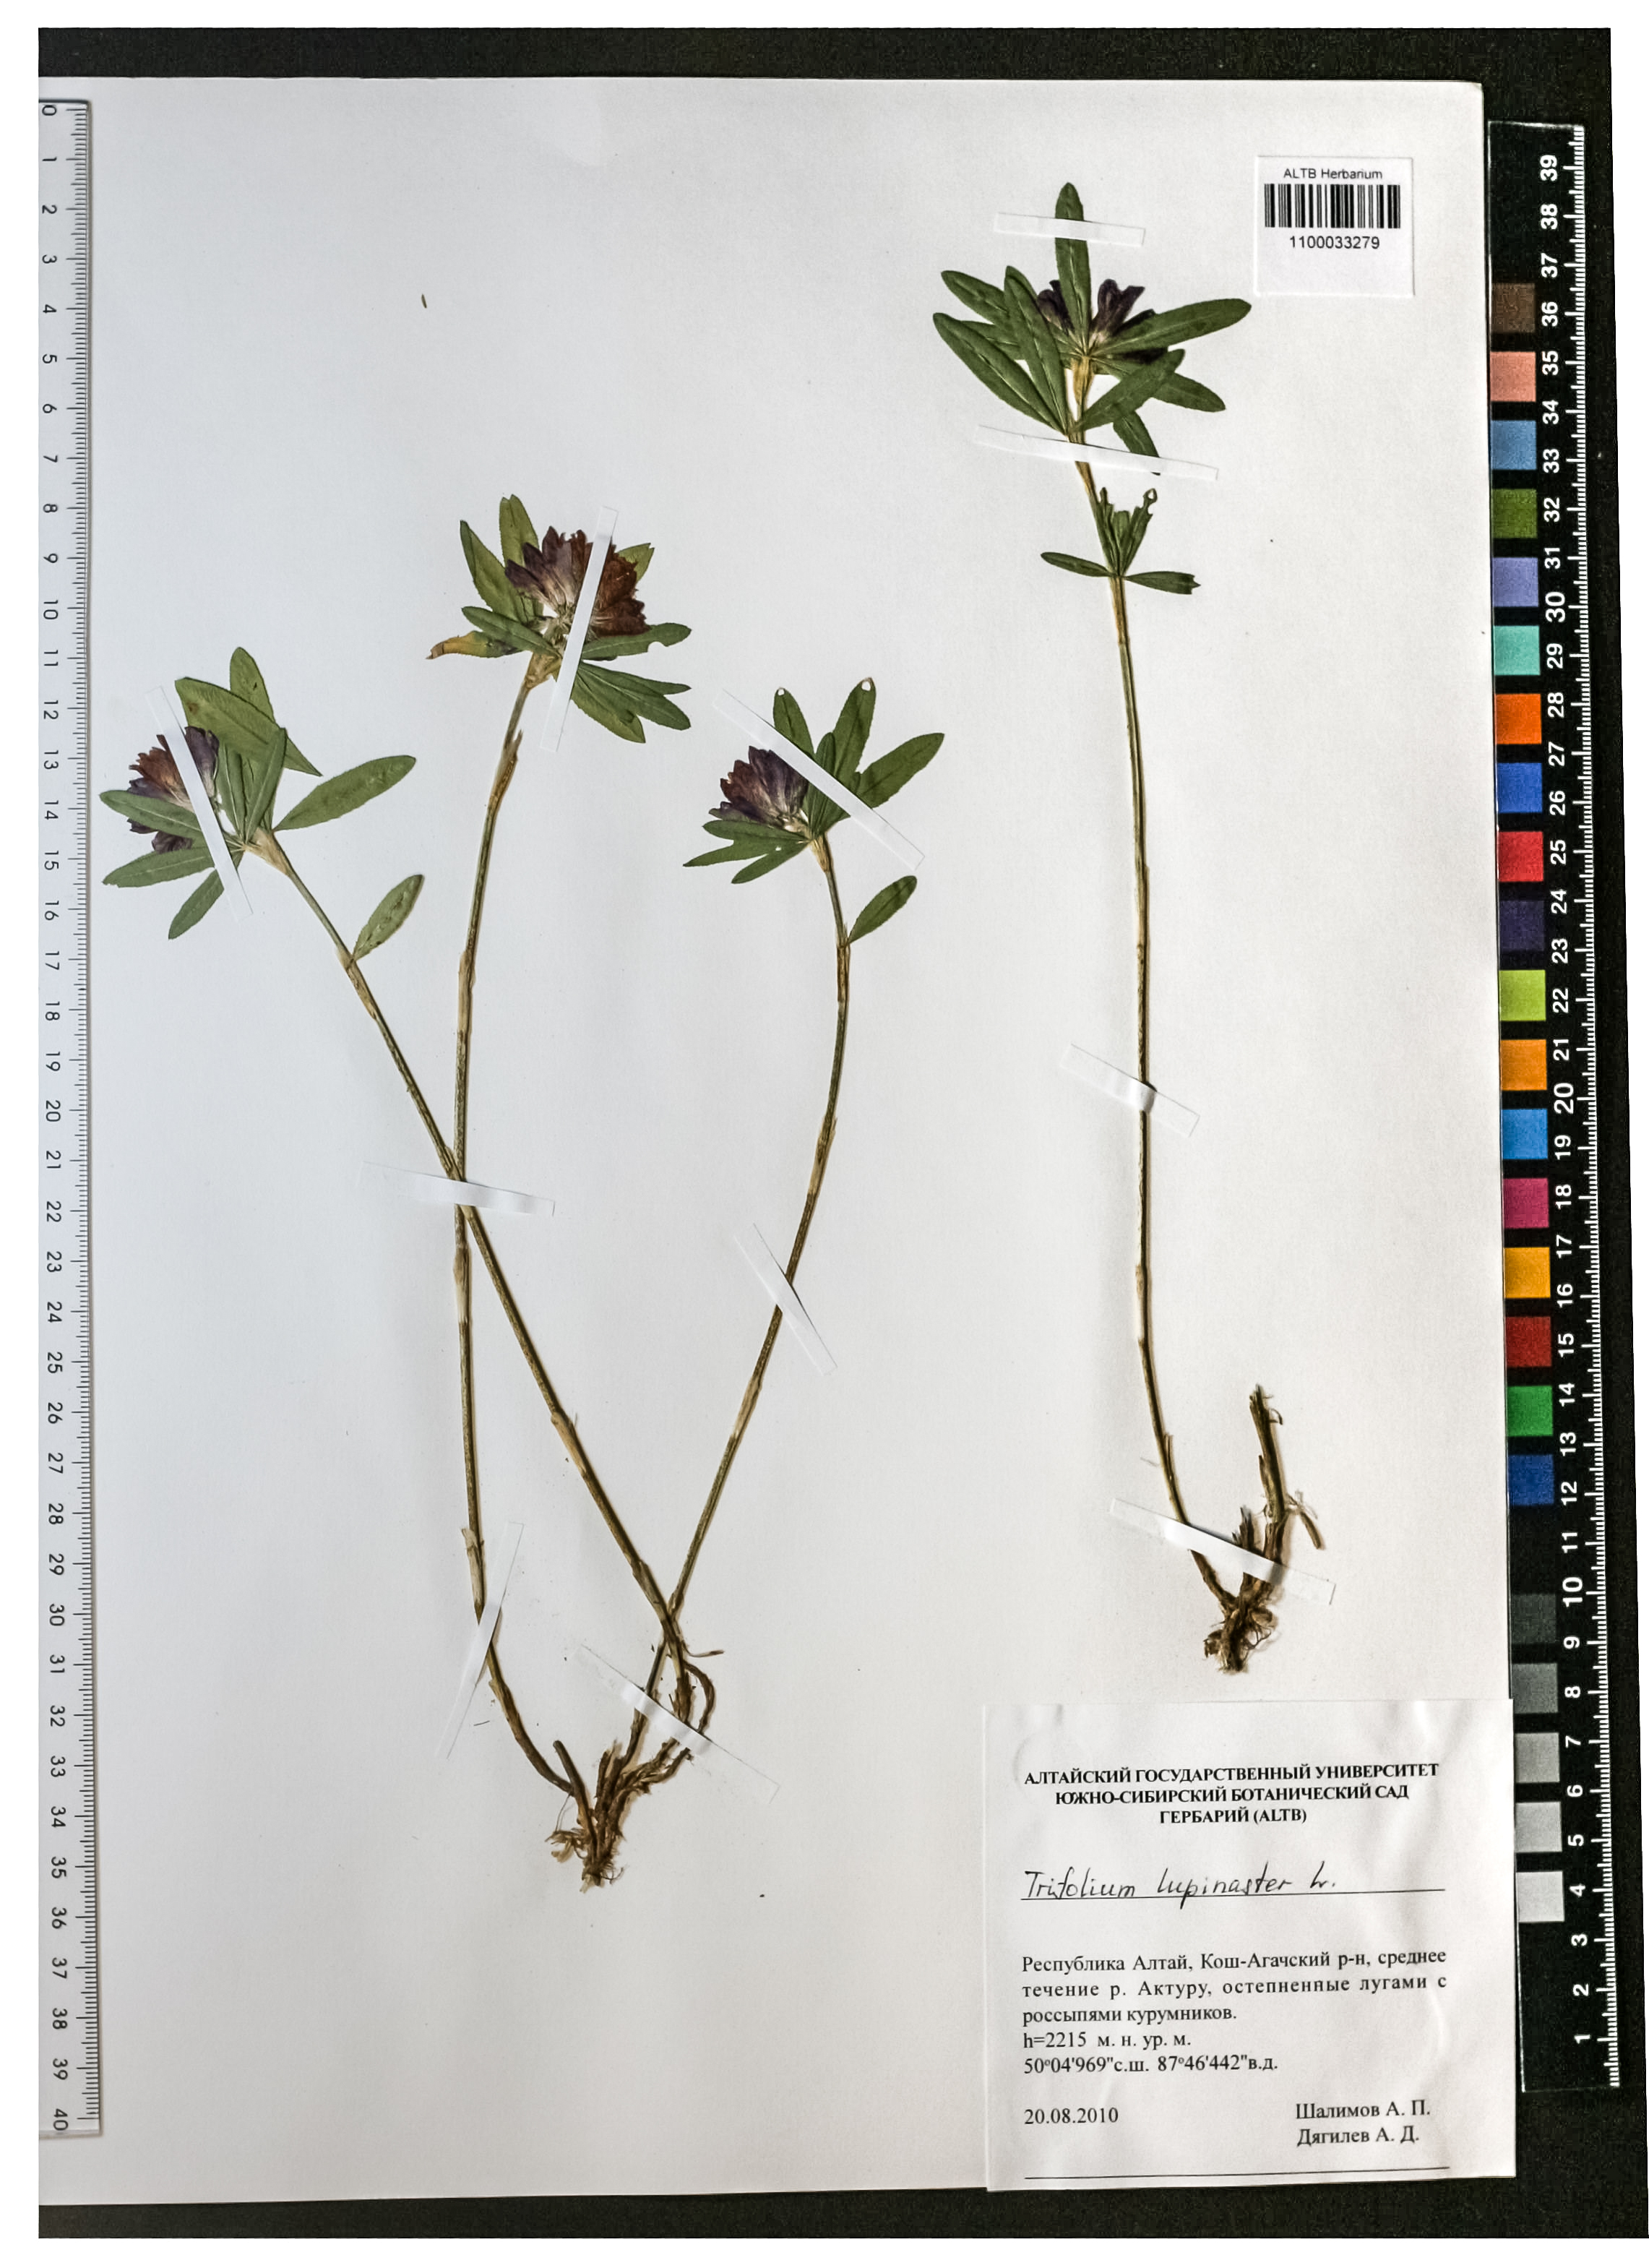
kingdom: Plantae
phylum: Tracheophyta
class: Magnoliopsida
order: Fabales
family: Fabaceae
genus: Trifolium
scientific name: Trifolium lupinaster
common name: Lupine clover
